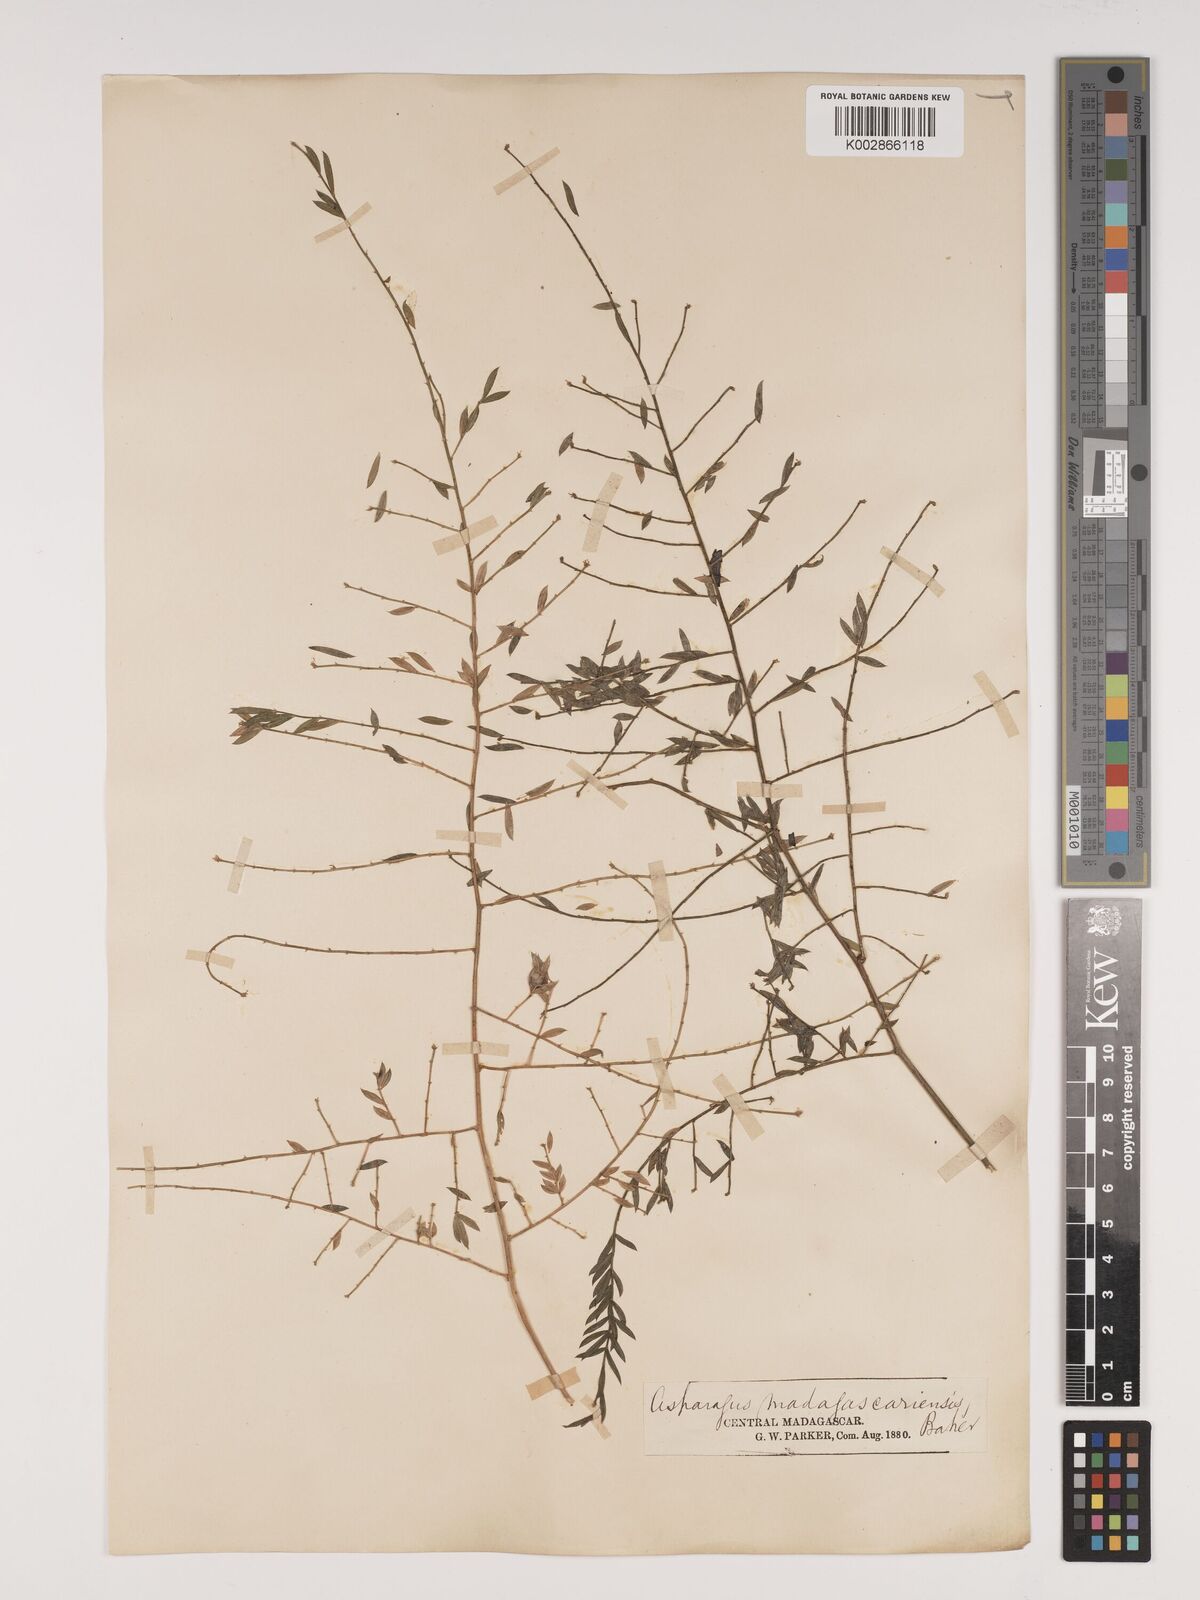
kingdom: Plantae
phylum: Tracheophyta
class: Liliopsida
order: Asparagales
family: Asparagaceae
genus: Asparagus
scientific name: Asparagus simulans
